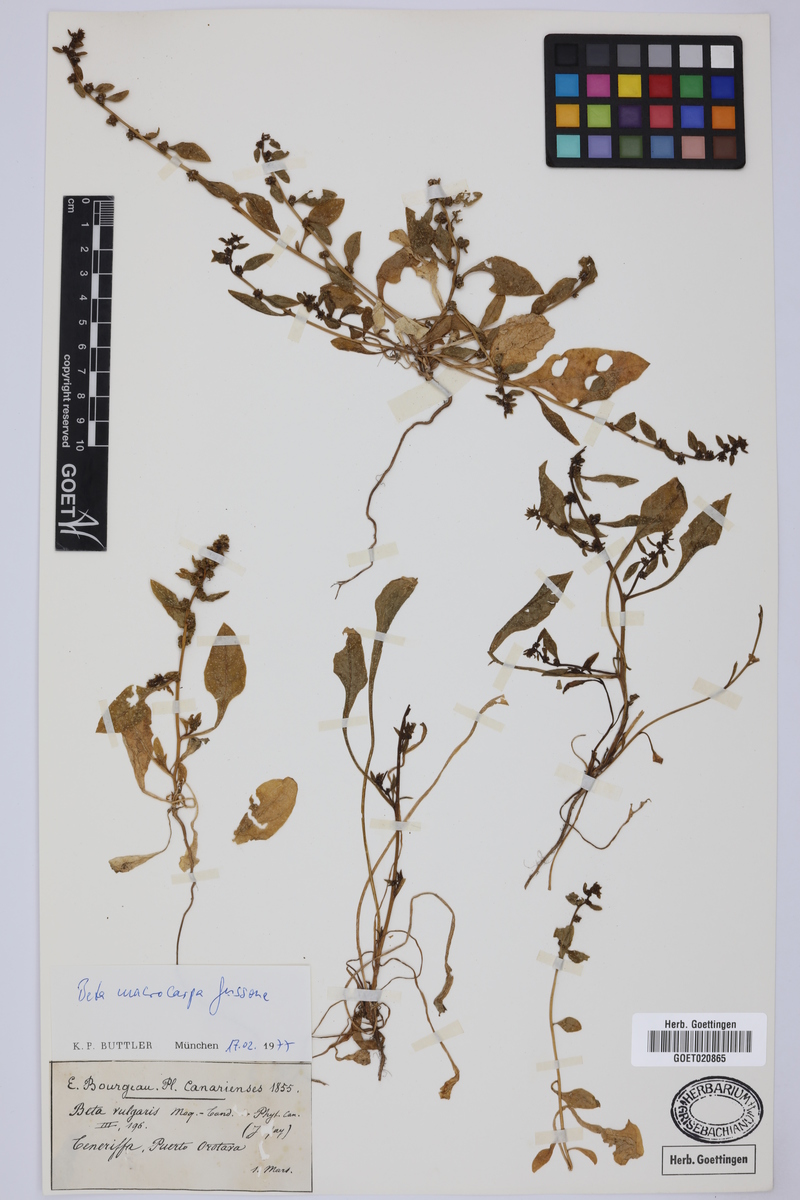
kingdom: Plantae
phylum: Tracheophyta
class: Magnoliopsida
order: Caryophyllales
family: Amaranthaceae
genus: Beta
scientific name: Beta macrocarpa
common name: Beet
